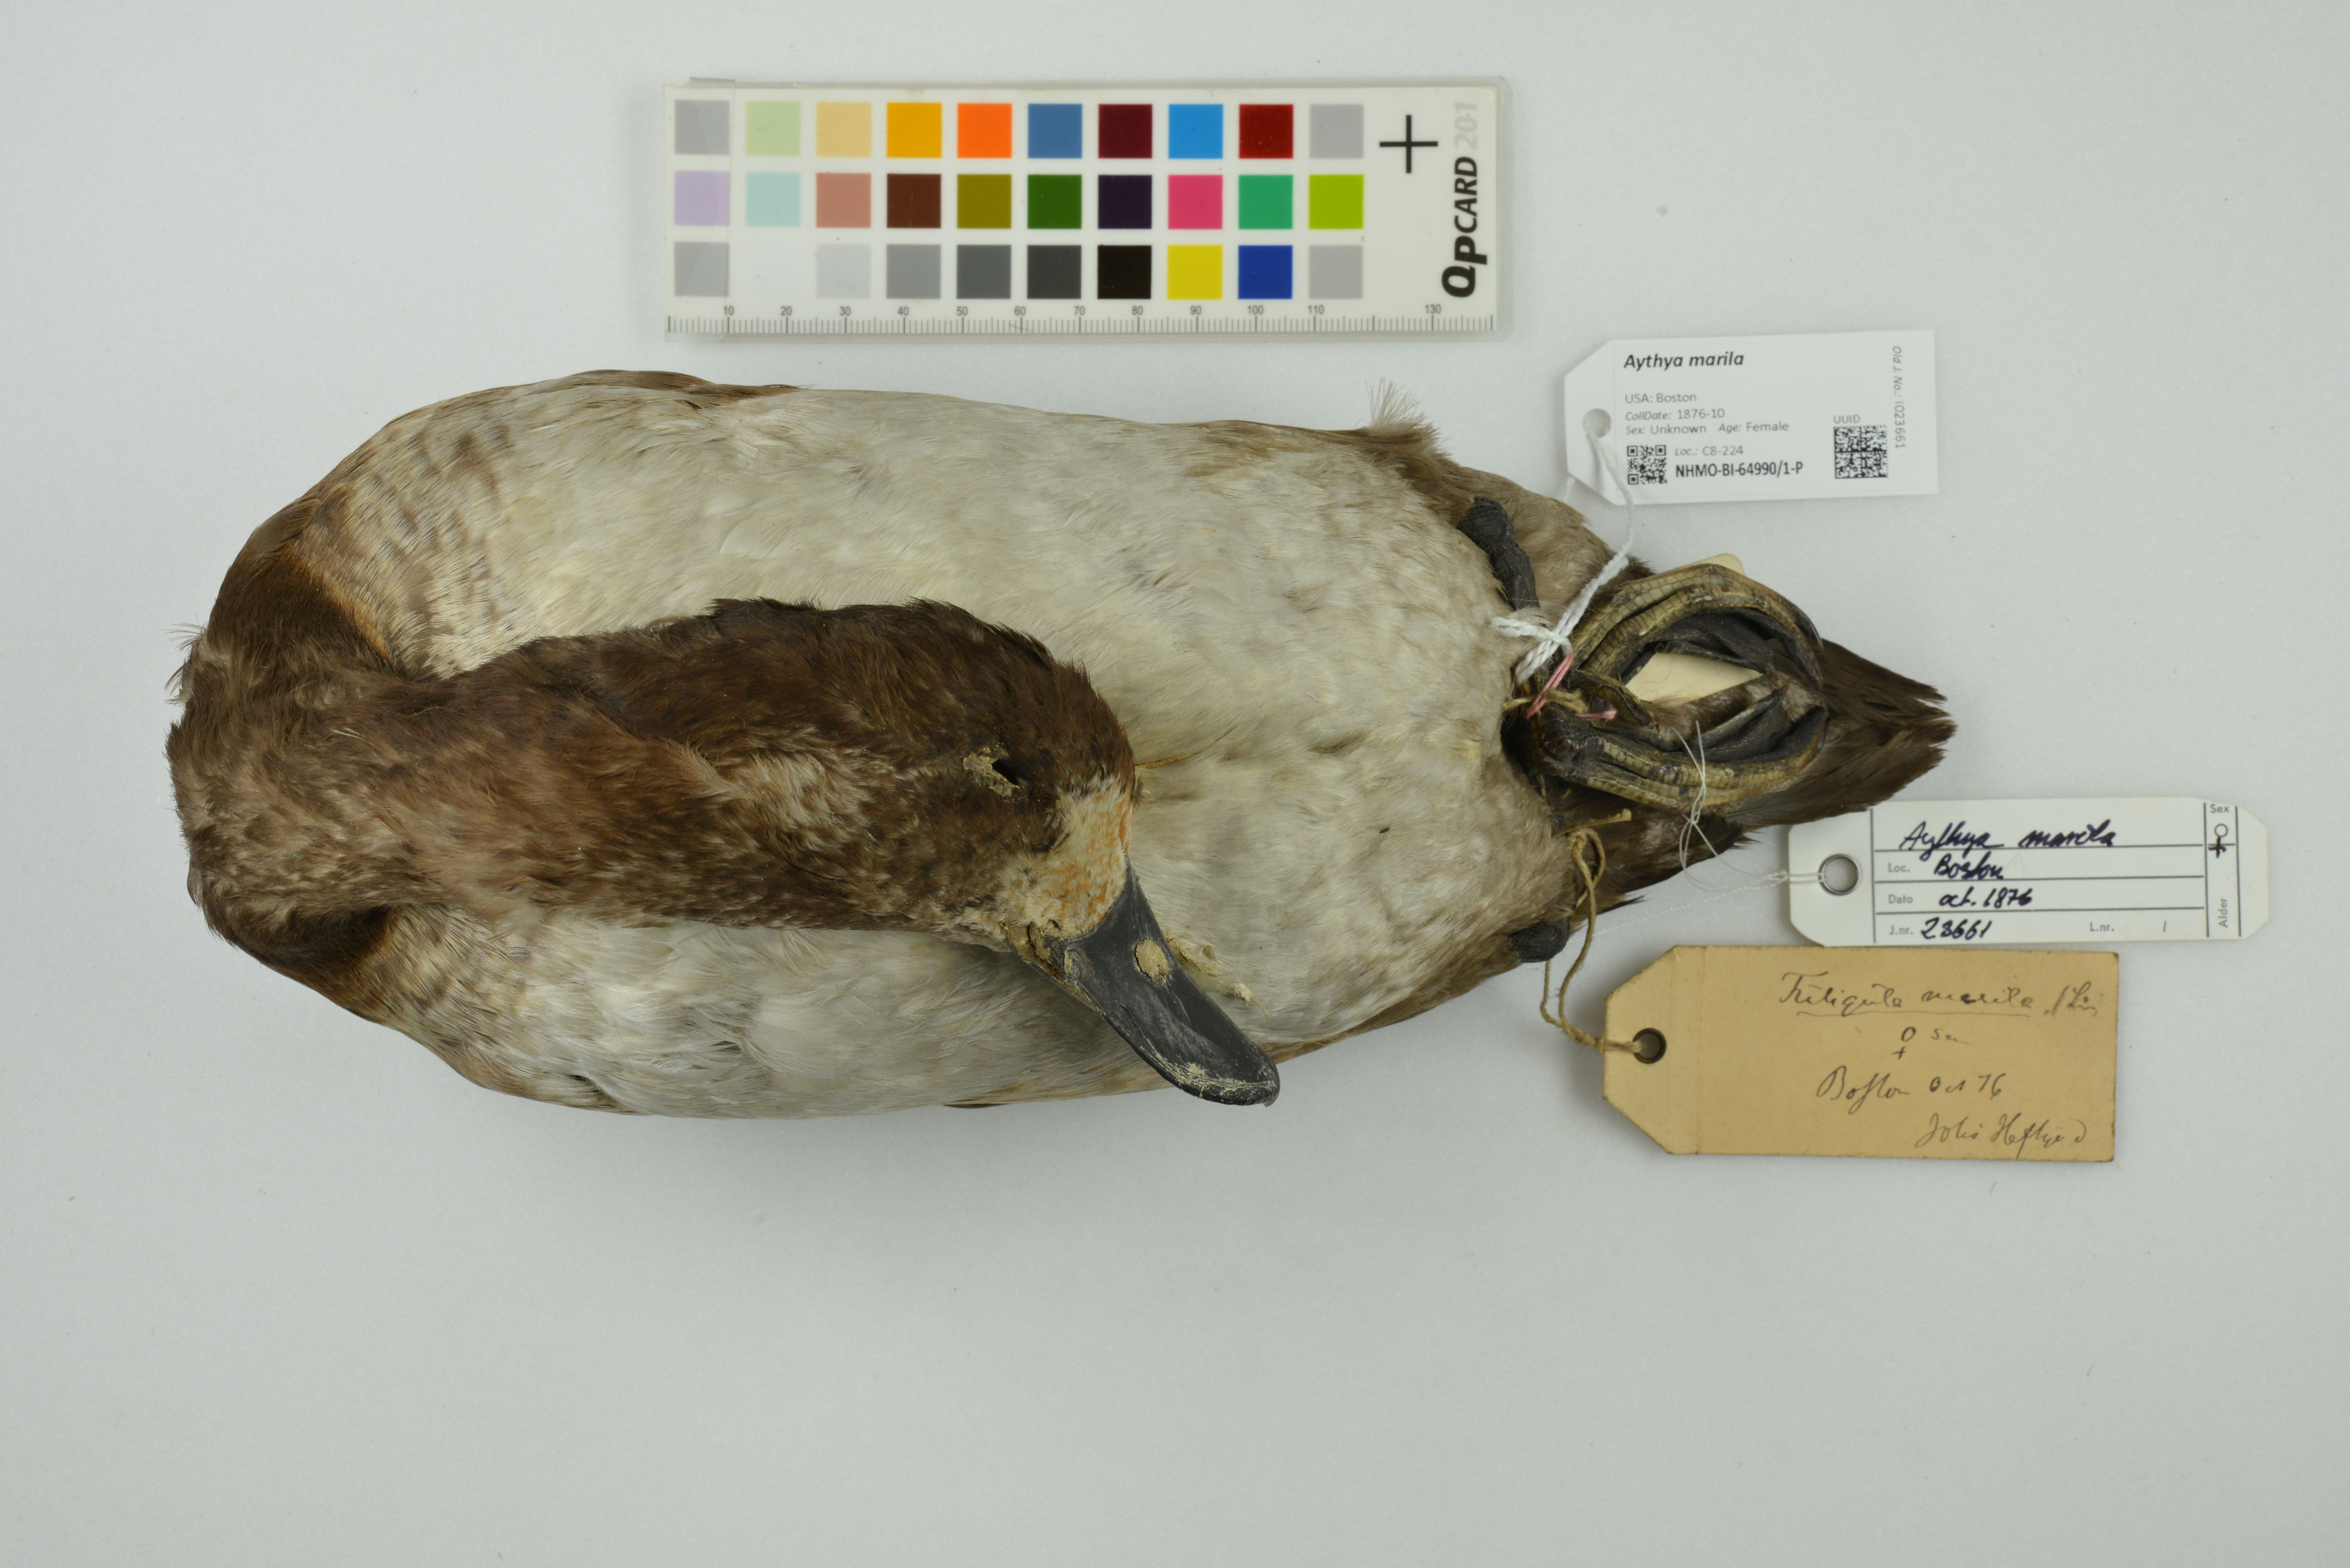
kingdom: Animalia
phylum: Chordata
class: Aves
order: Anseriformes
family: Anatidae
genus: Aythya
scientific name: Aythya marila
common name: Greater scaup
